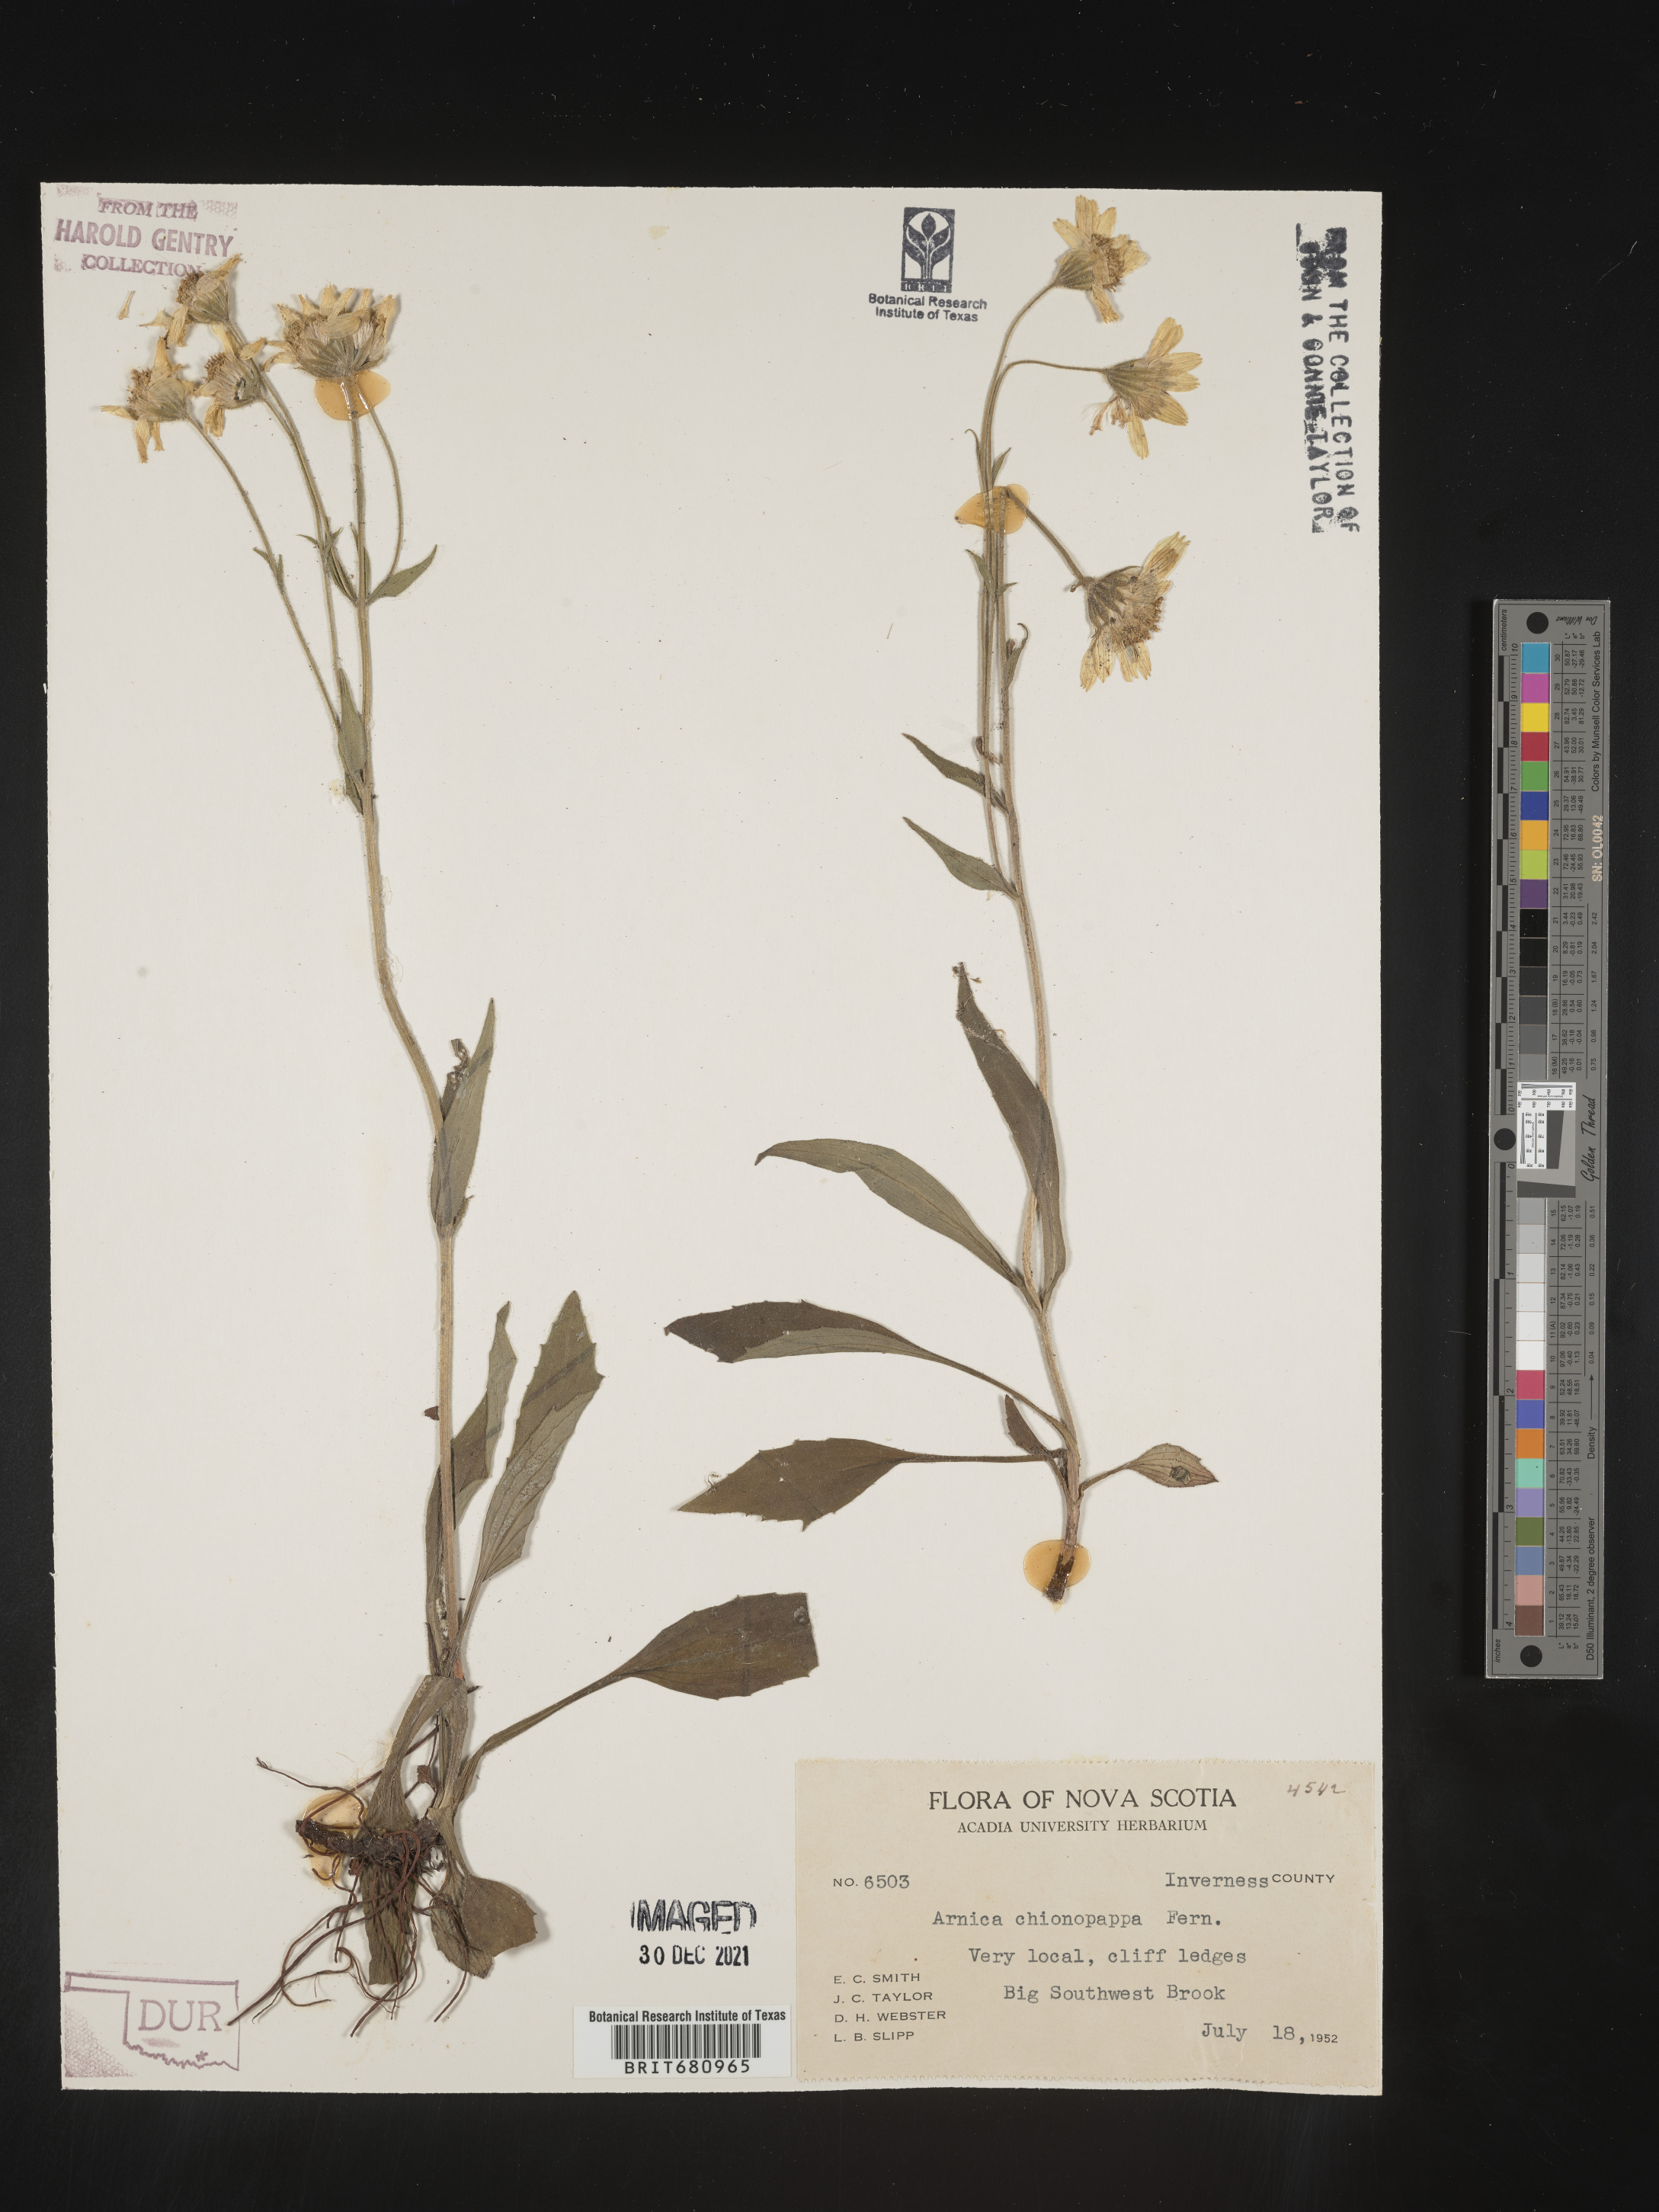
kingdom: Plantae
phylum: Tracheophyta
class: Magnoliopsida
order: Asterales
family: Asteraceae
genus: Arnica
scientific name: Arnica lonchophylla
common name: Northern arnica
